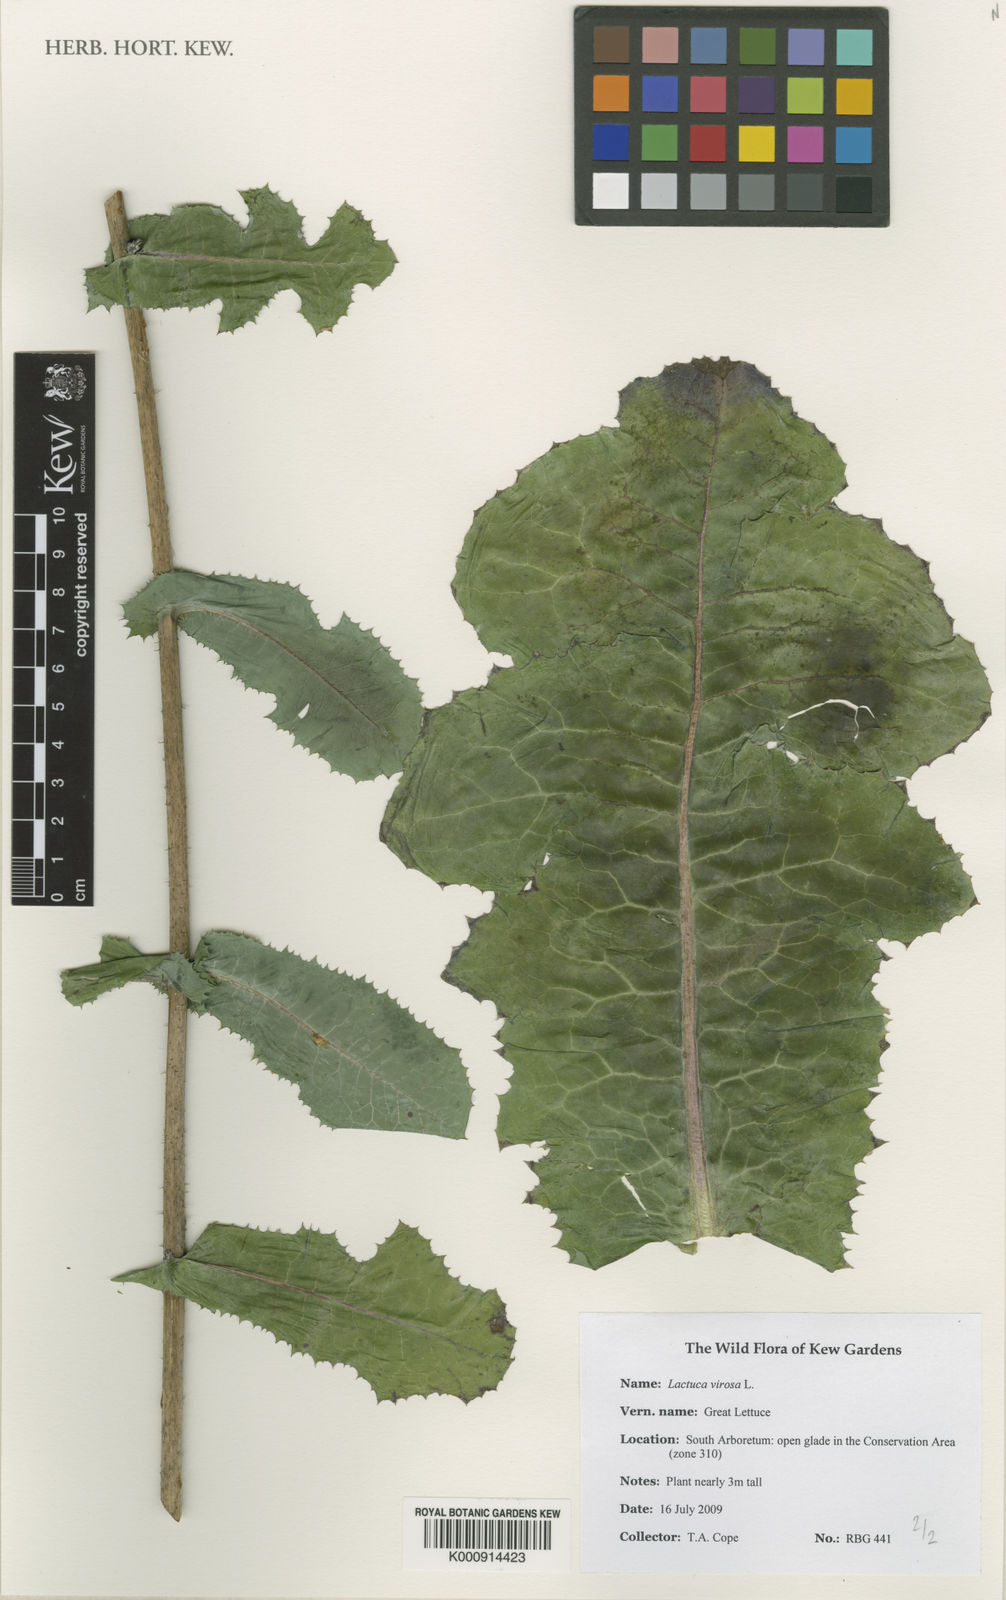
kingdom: Plantae
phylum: Tracheophyta
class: Magnoliopsida
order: Asterales
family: Asteraceae
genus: Lactuca
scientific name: Lactuca virosa
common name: Great lettuce
